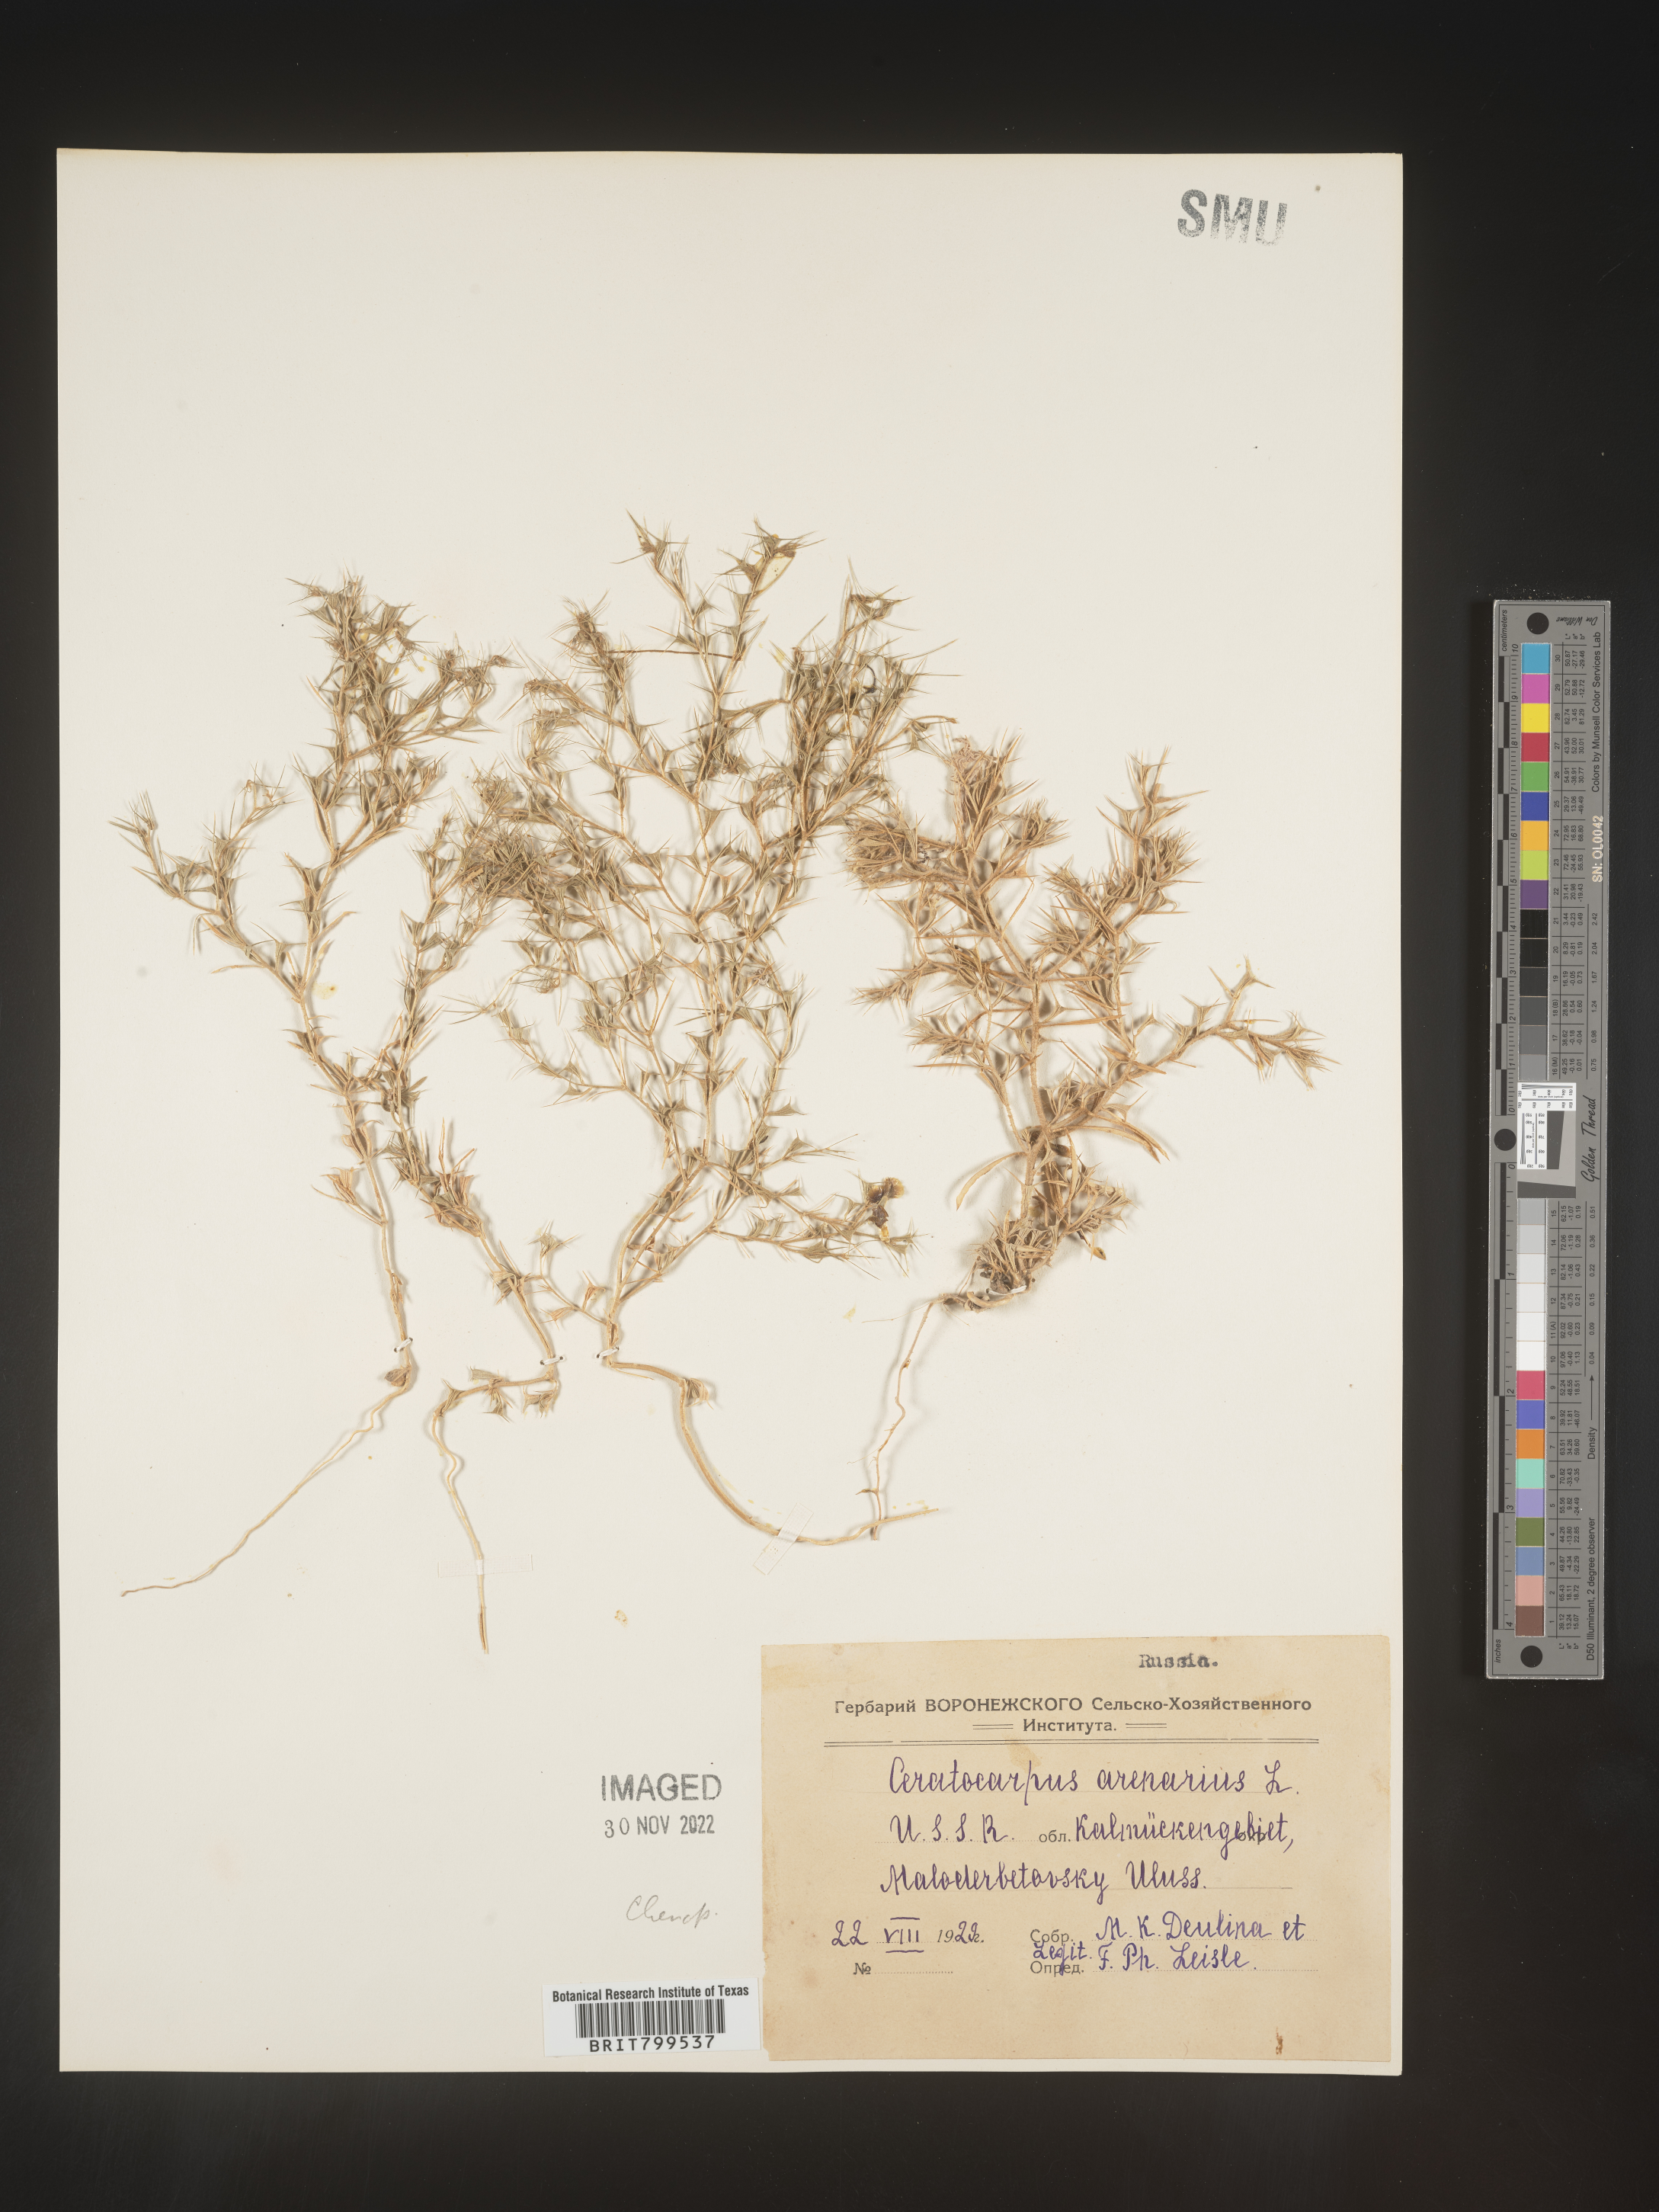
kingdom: Plantae
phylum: Tracheophyta
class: Magnoliopsida
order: Caryophyllales
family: Amaranthaceae
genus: Krascheninnikovia
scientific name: Krascheninnikovia
